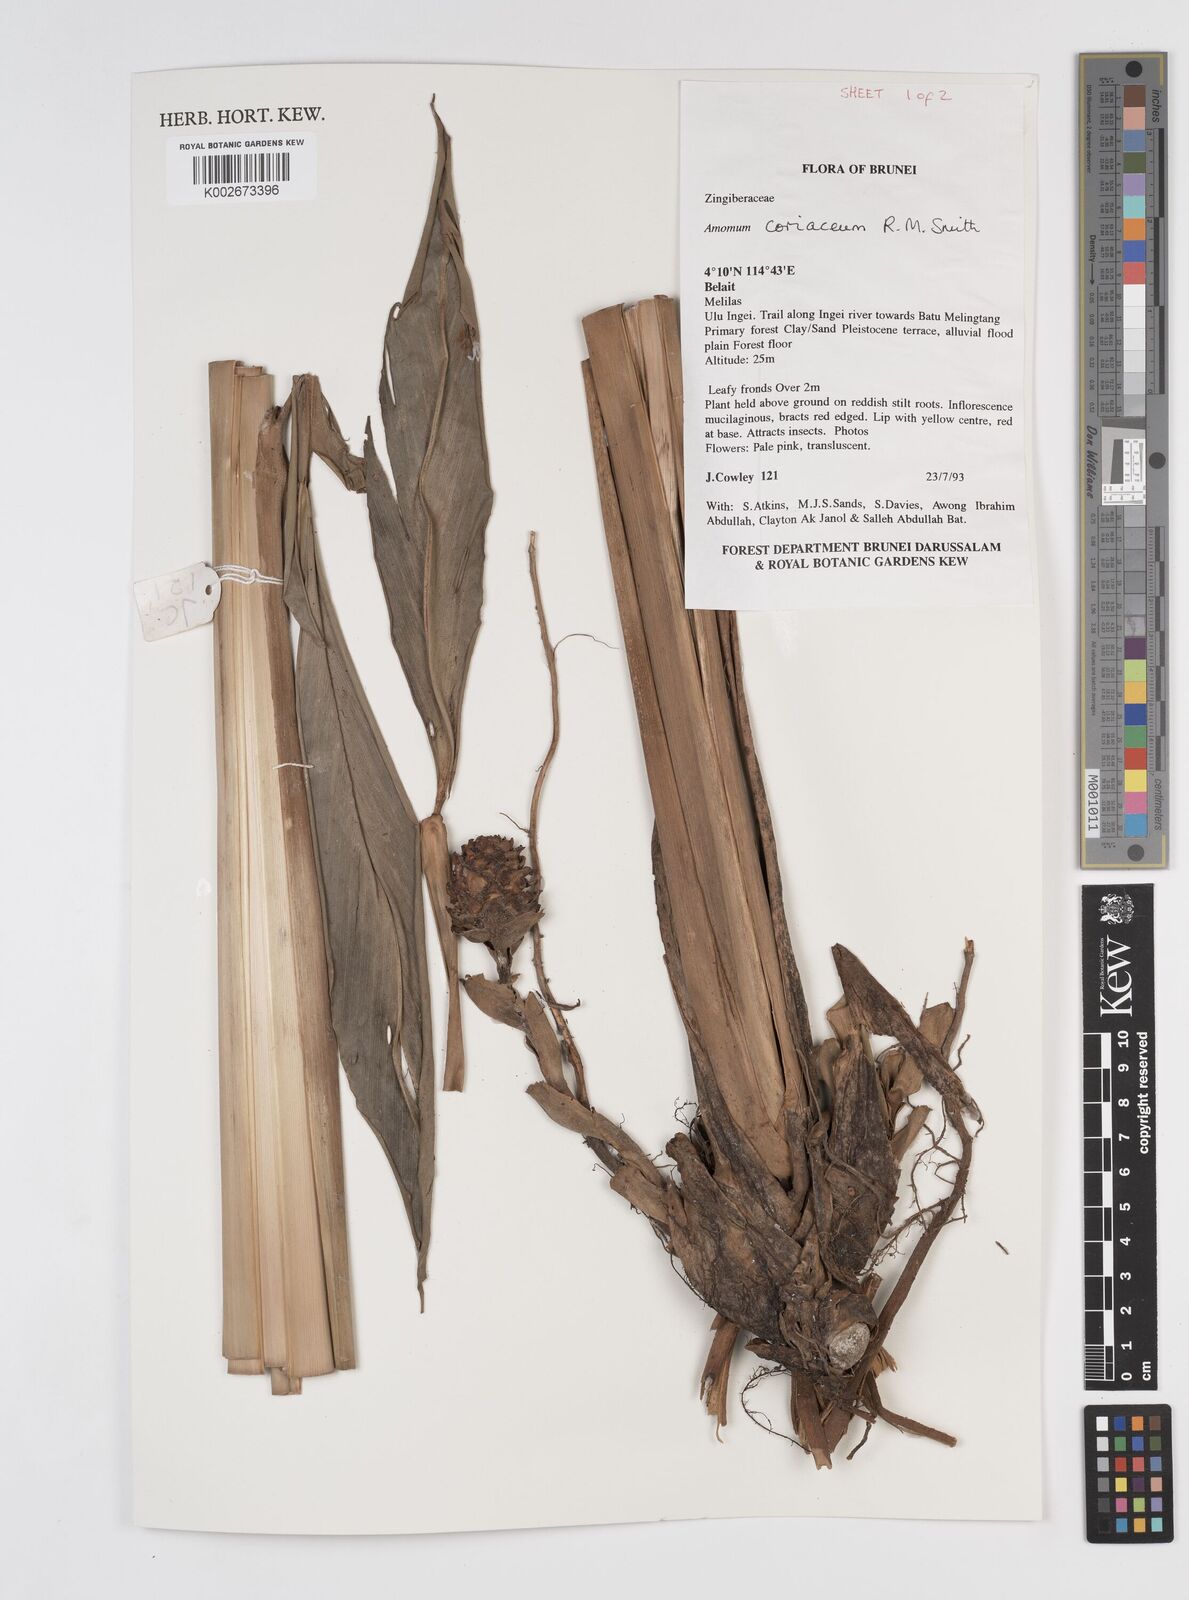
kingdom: Plantae
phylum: Tracheophyta
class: Liliopsida
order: Zingiberales
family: Zingiberaceae
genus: Conamomum
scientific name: Conamomum cylindrostachys
